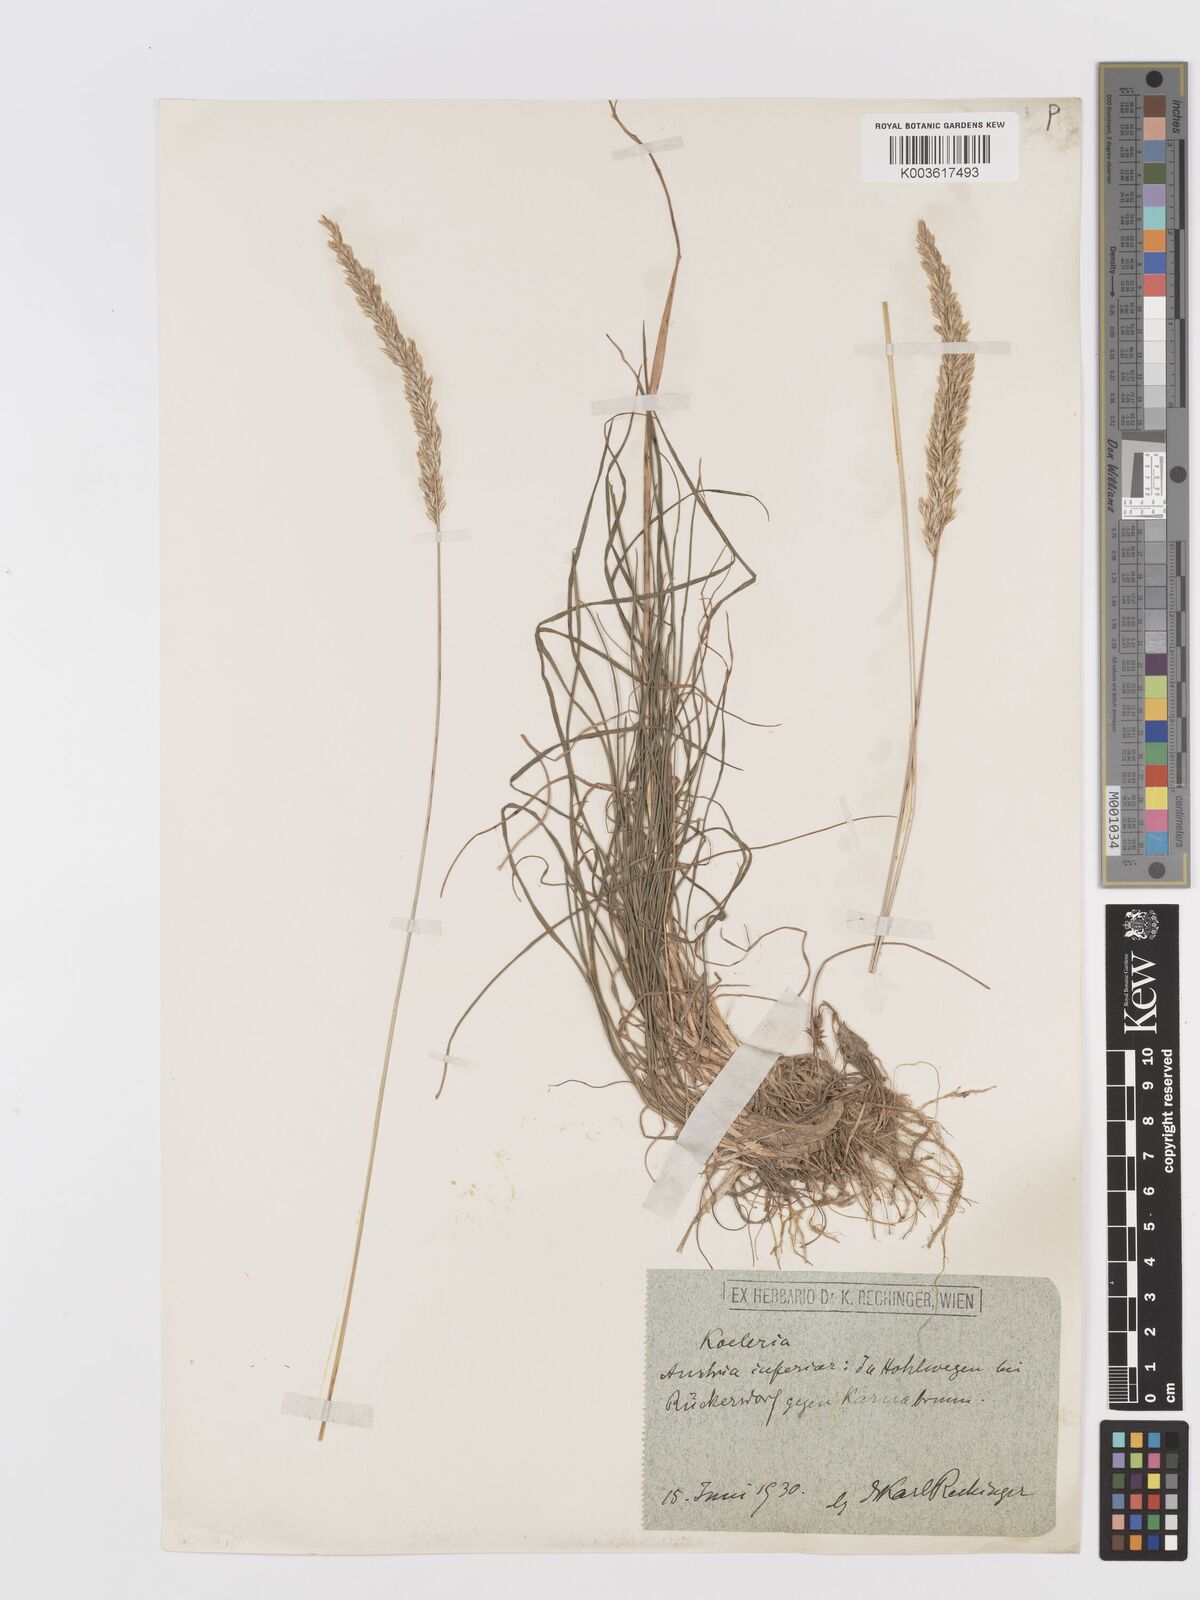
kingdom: Plantae
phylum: Tracheophyta
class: Liliopsida
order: Poales
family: Poaceae
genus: Koeleria
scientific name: Koeleria
